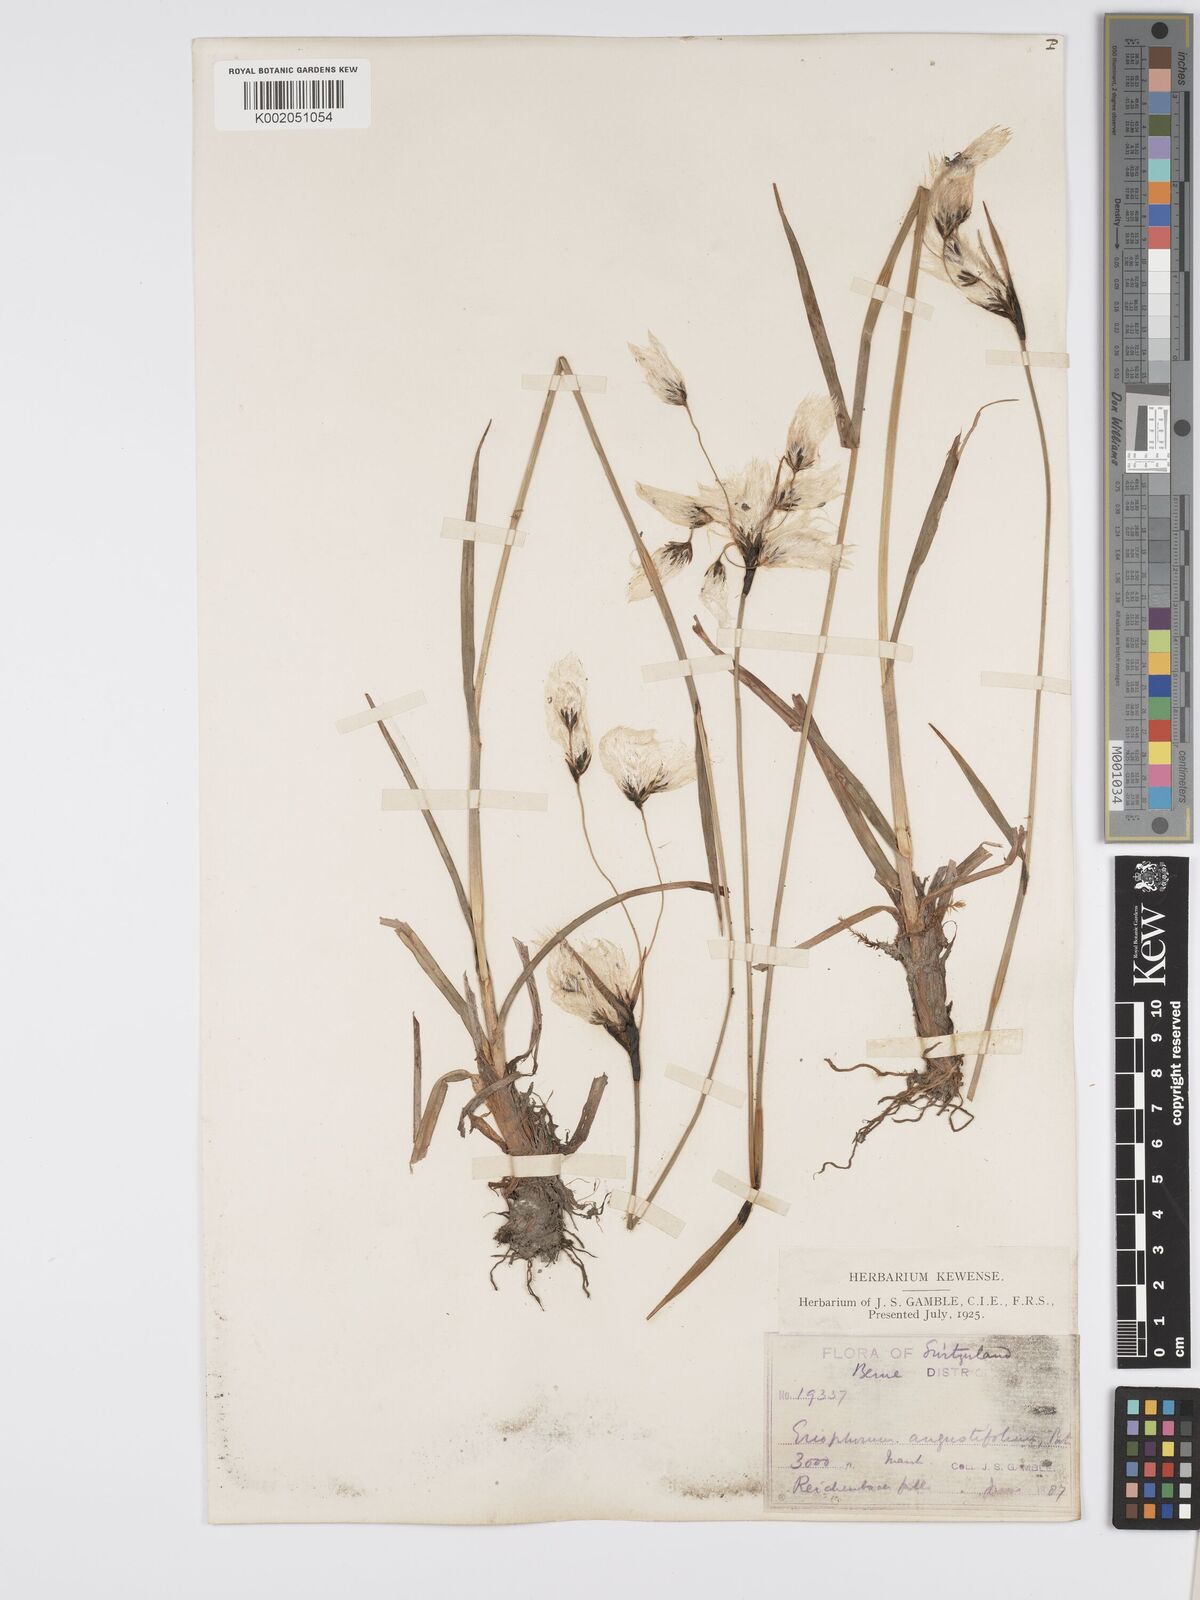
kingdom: Plantae
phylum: Tracheophyta
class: Liliopsida
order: Poales
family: Cyperaceae
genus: Eriophorum
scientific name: Eriophorum angustifolium
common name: Common cottongrass
